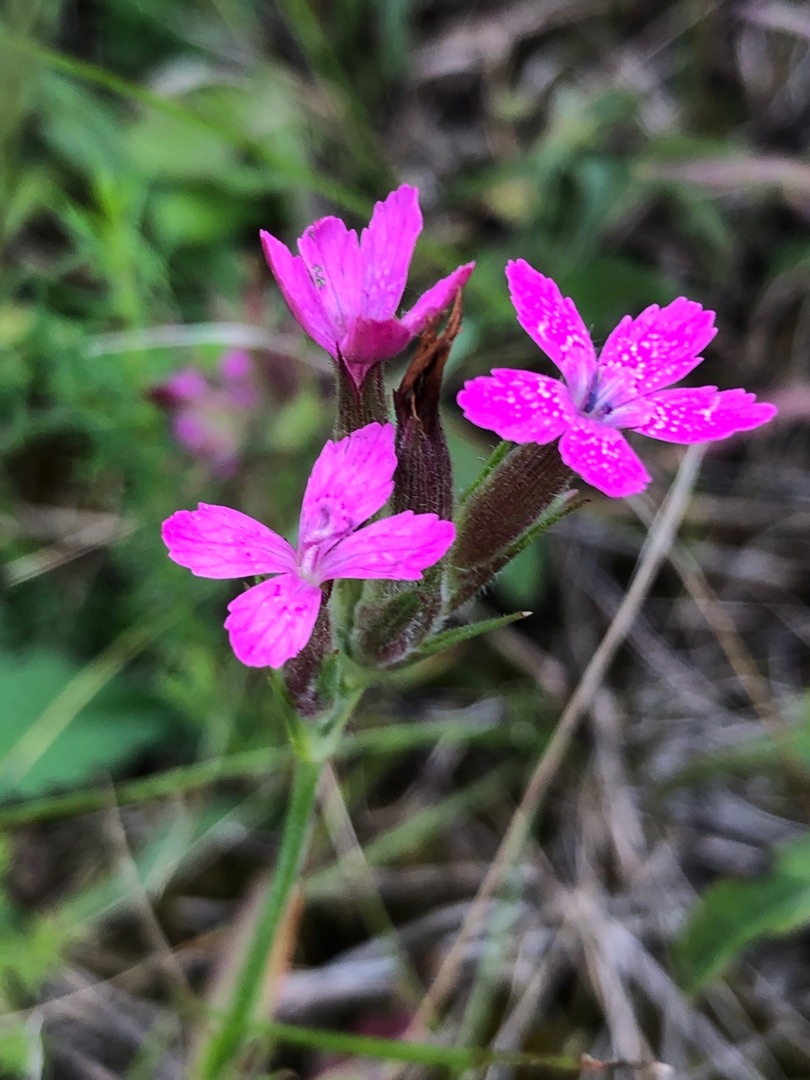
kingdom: Plantae
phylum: Tracheophyta
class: Magnoliopsida
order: Caryophyllales
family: Caryophyllaceae
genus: Dianthus
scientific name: Dianthus armeria
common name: Kost-nellike
